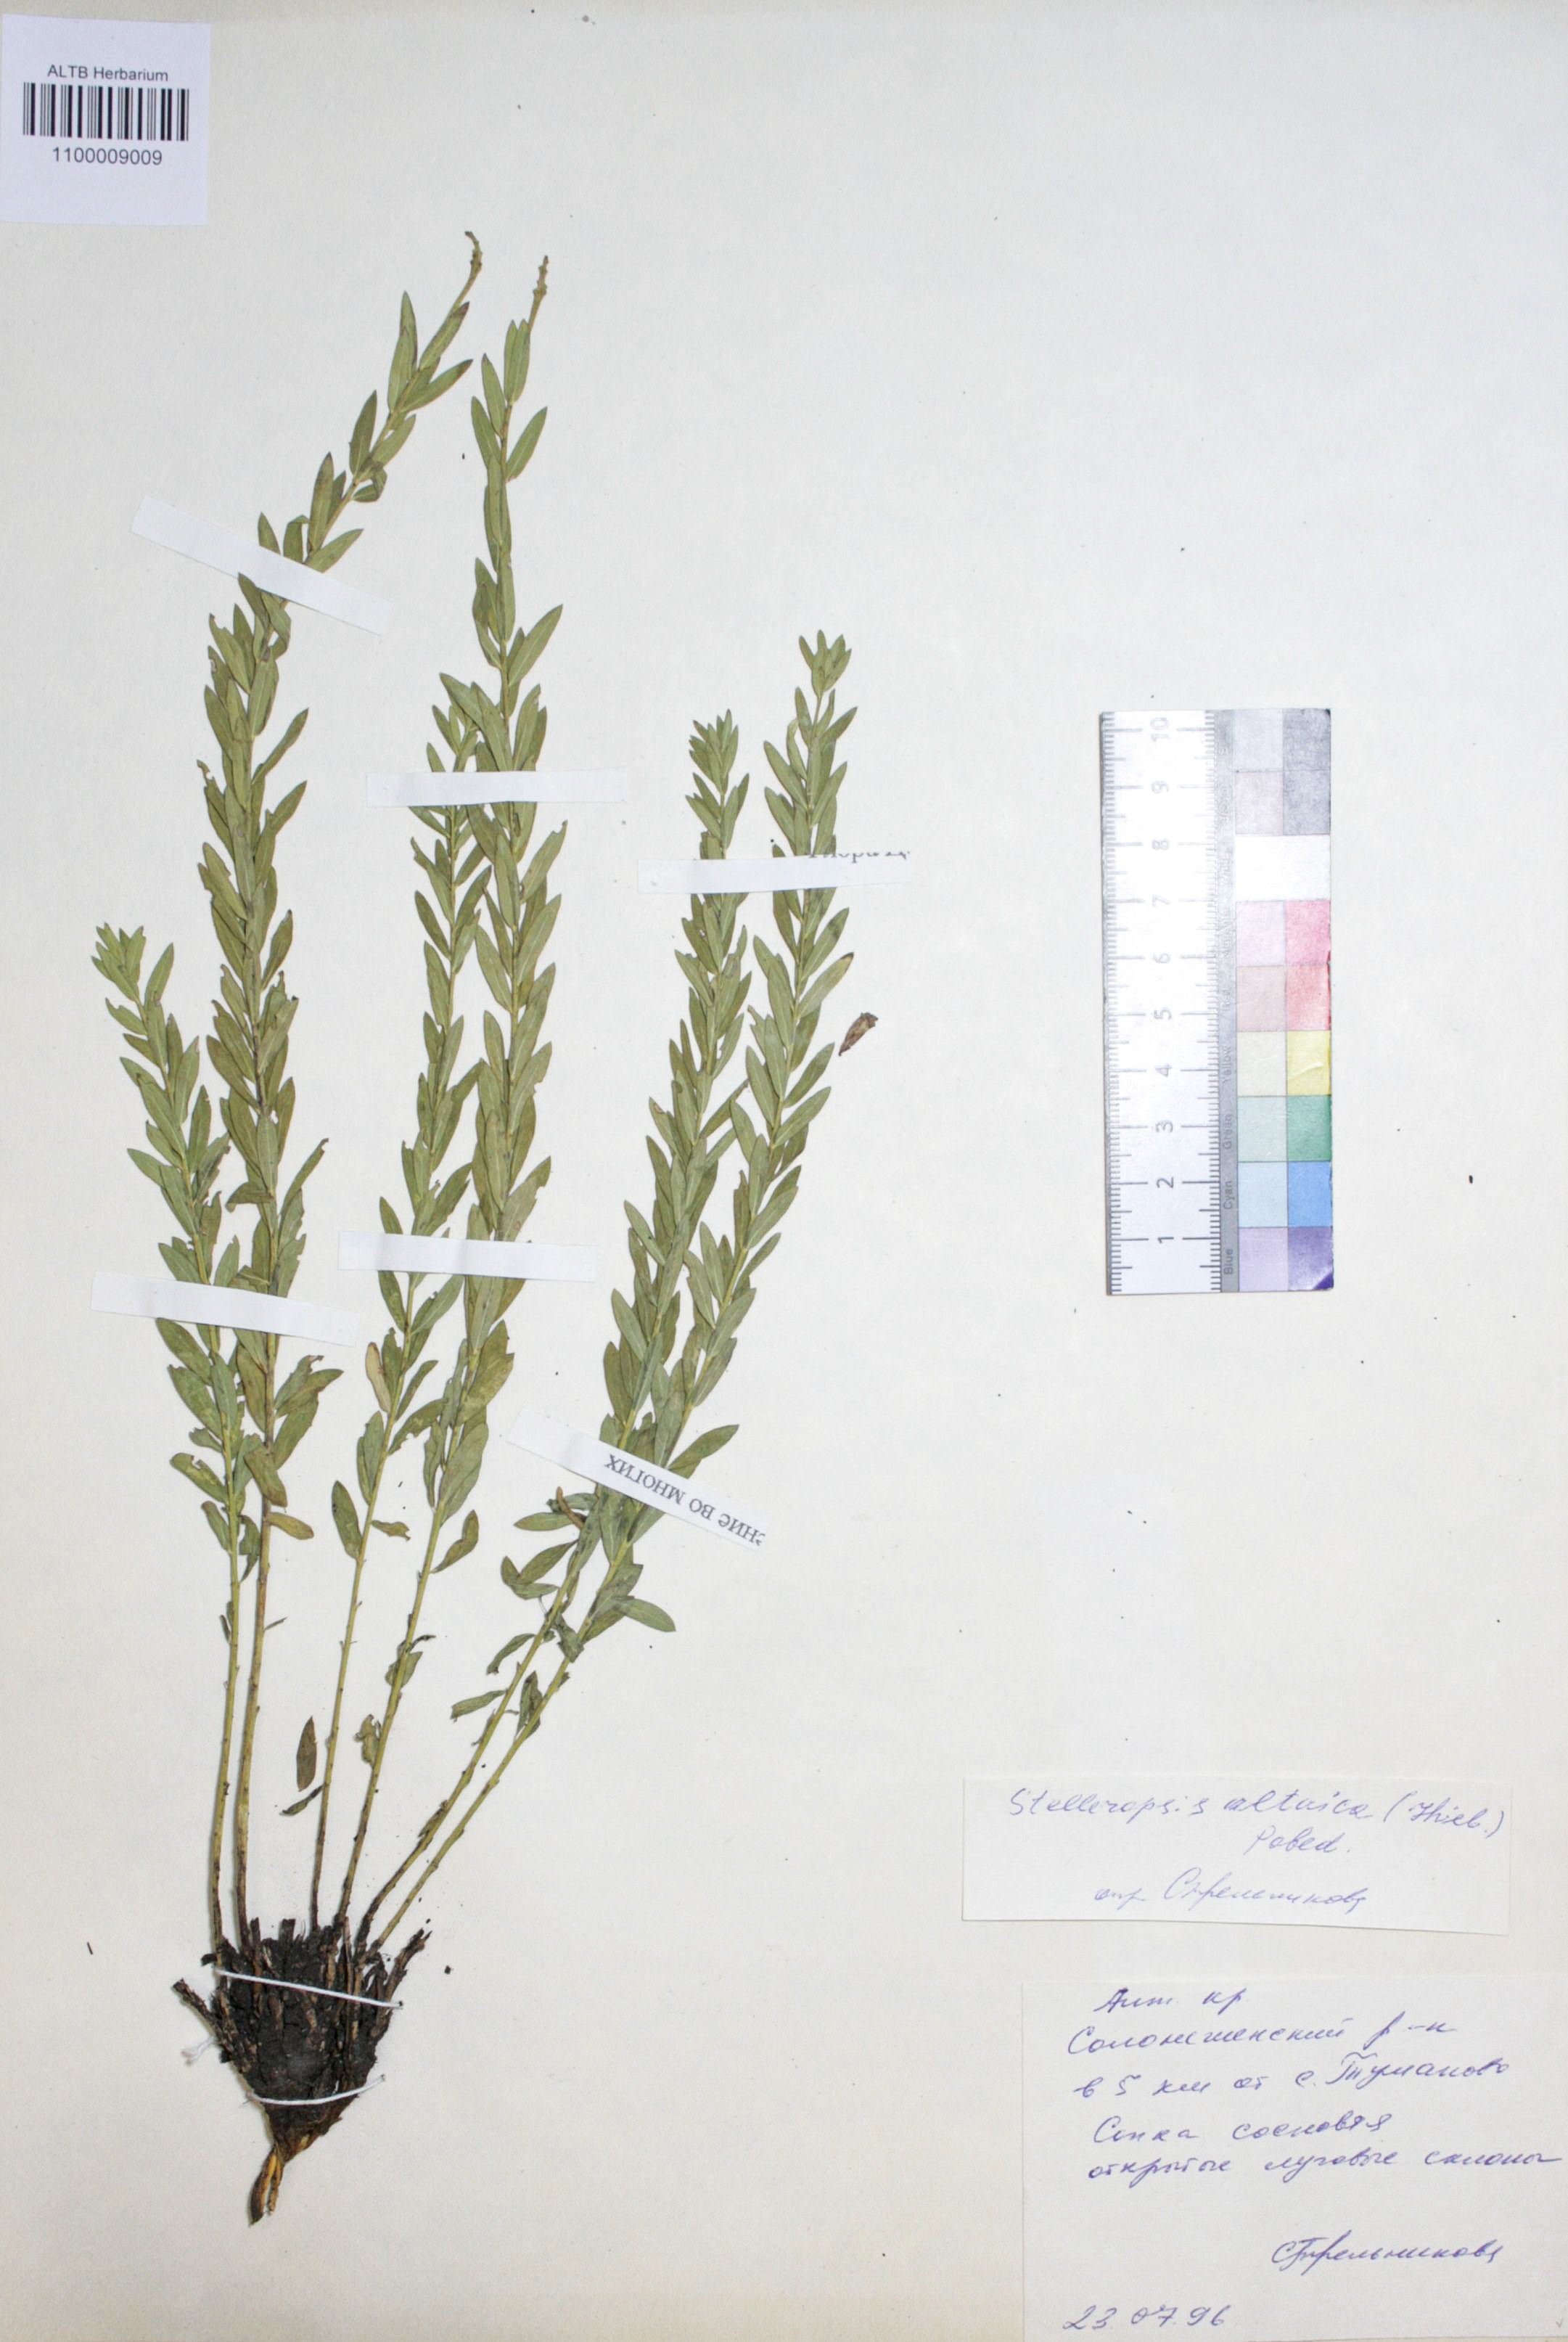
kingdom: Plantae
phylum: Tracheophyta
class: Magnoliopsida
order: Malvales
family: Thymelaeaceae
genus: Diarthron
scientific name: Diarthron altaicum
